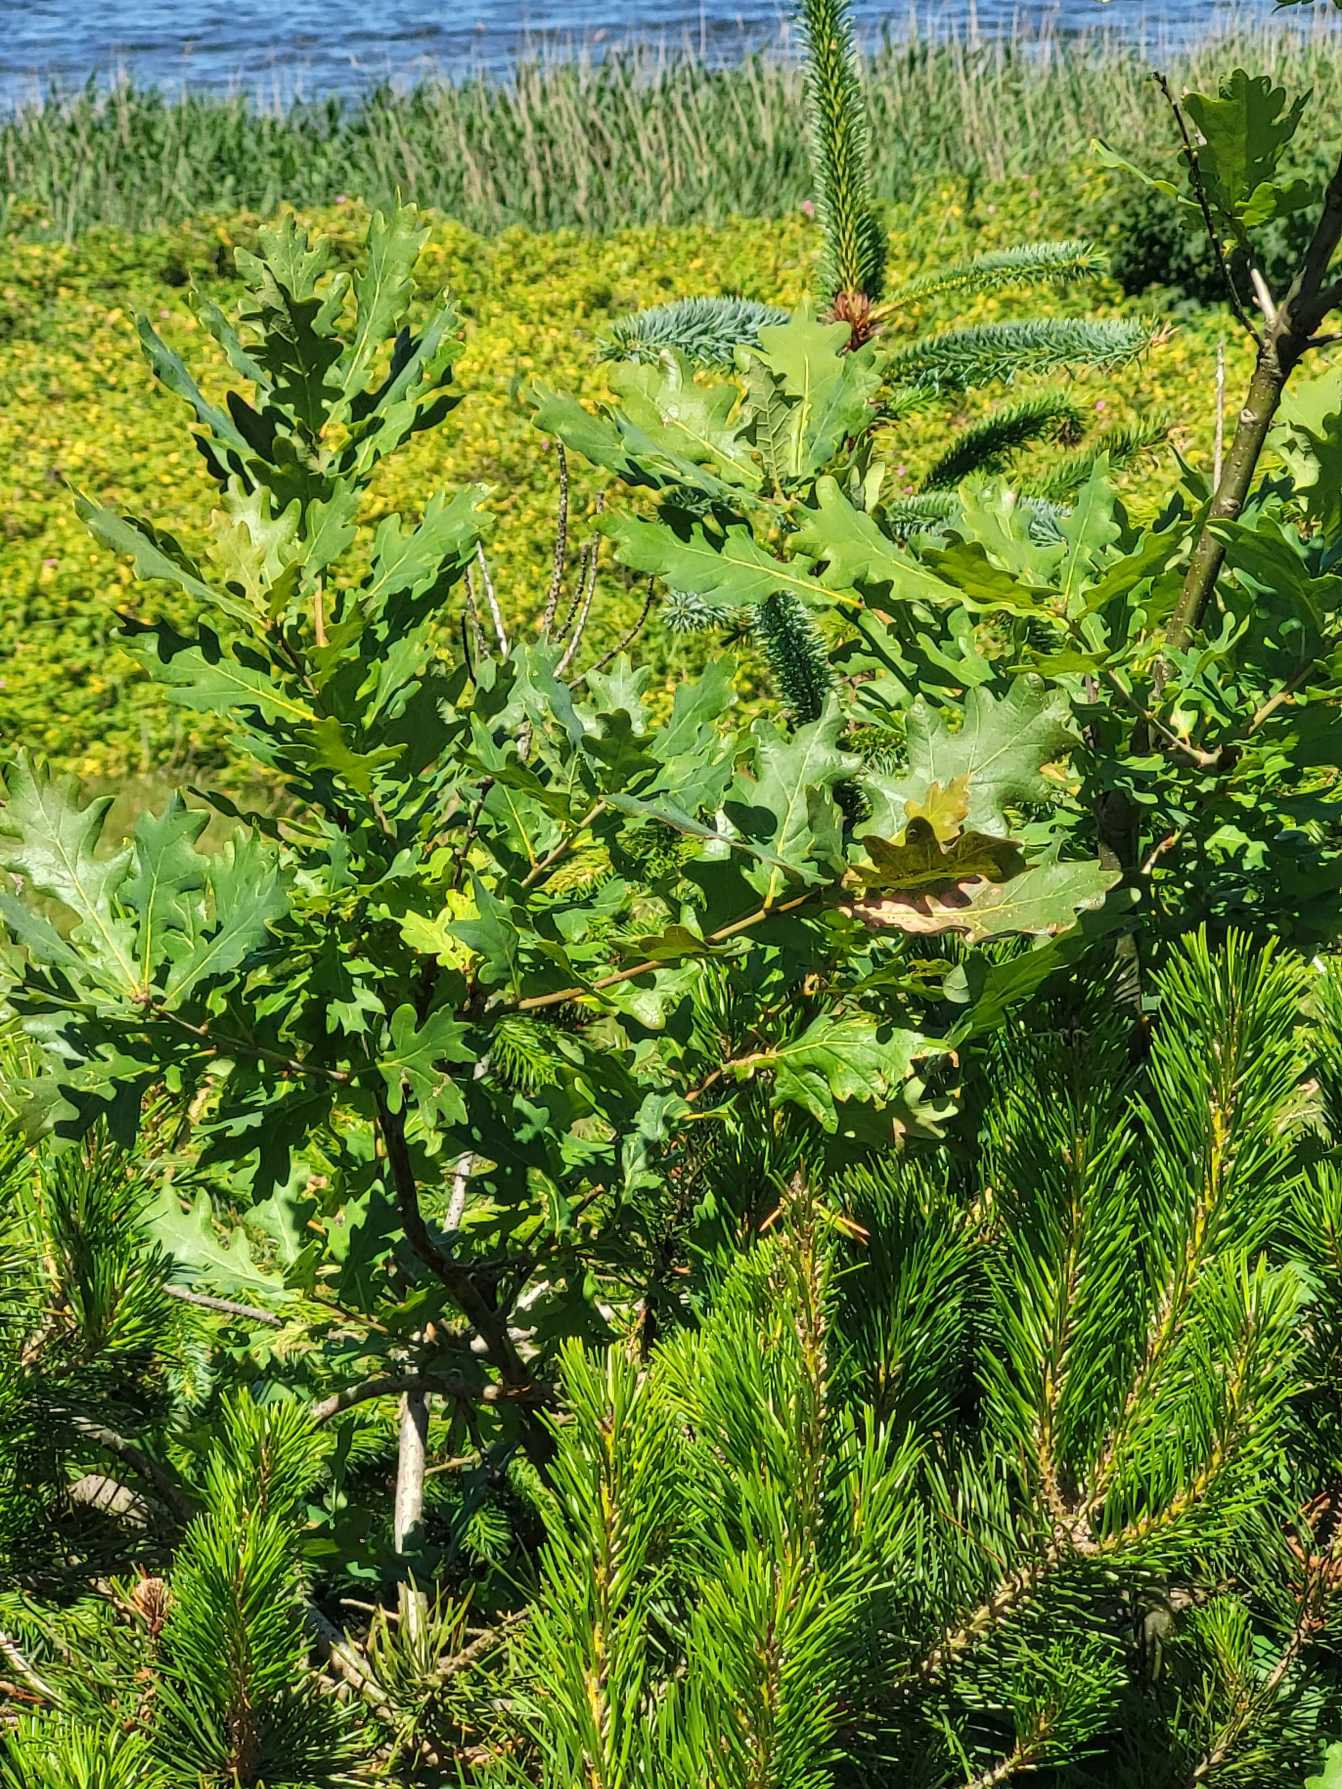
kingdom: Plantae
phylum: Tracheophyta
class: Magnoliopsida
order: Fagales
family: Fagaceae
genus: Quercus
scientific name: Quercus robur
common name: Stilk-eg/almindelig eg
